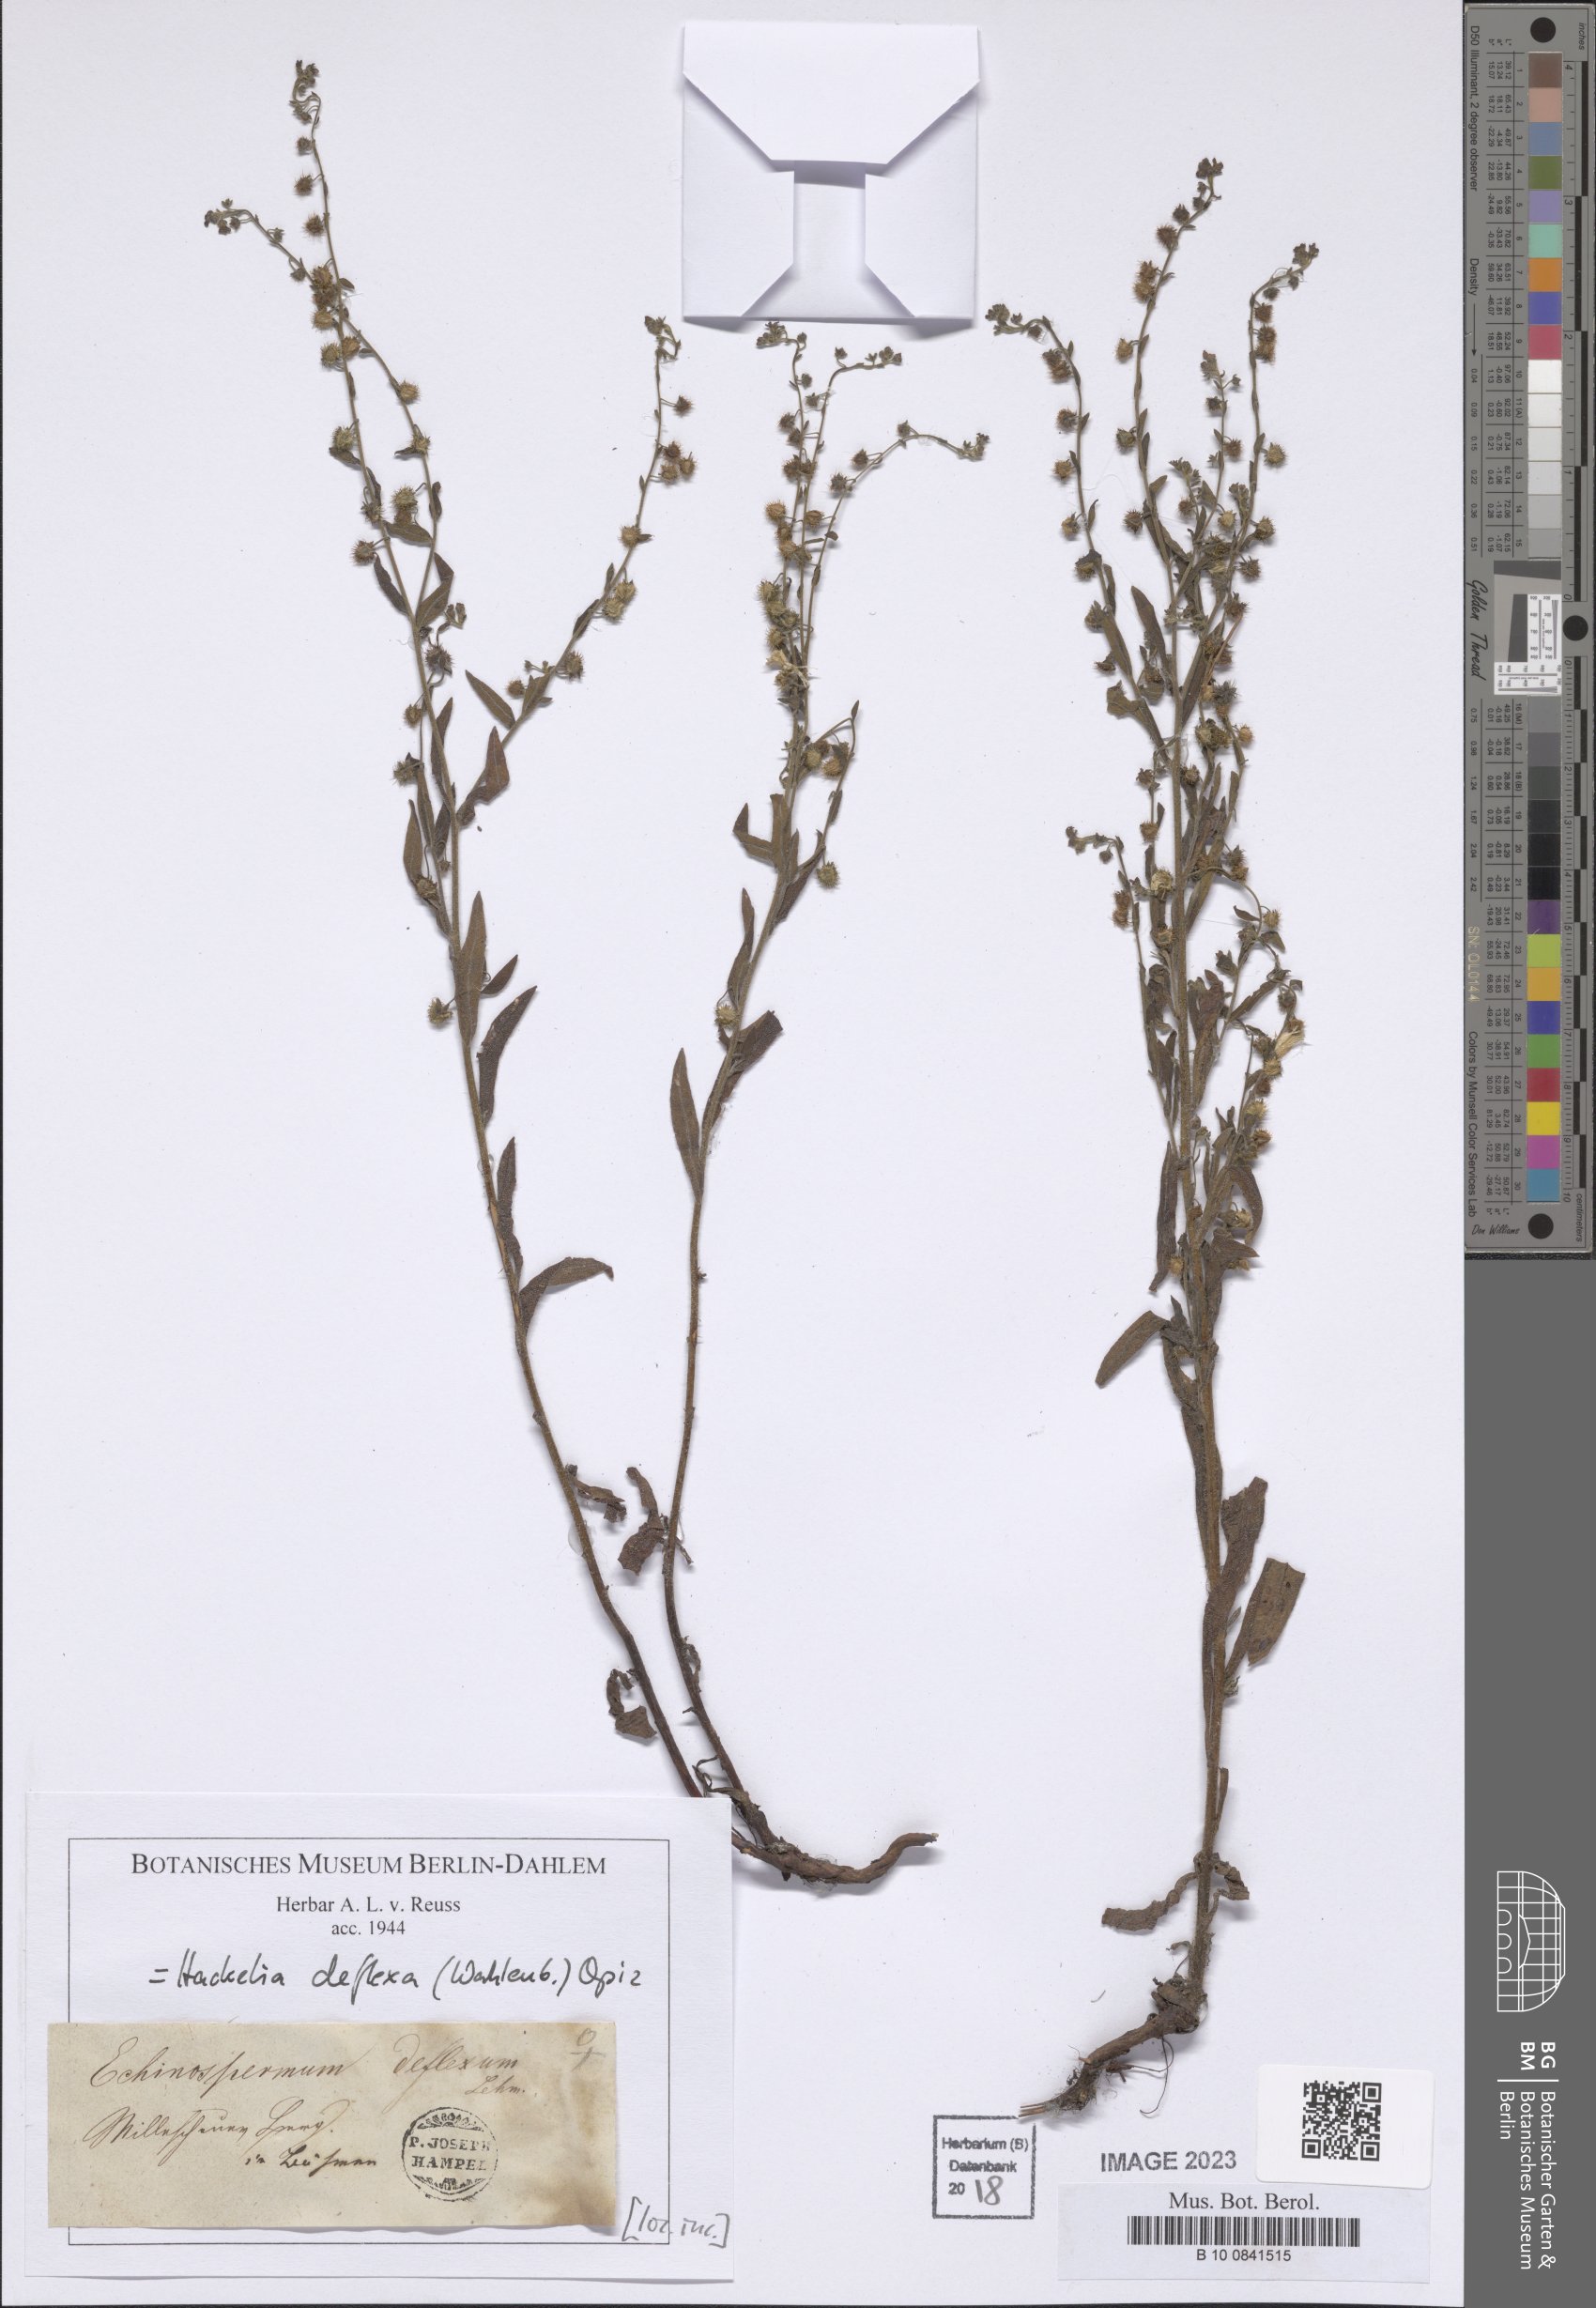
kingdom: Plantae
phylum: Tracheophyta
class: Magnoliopsida
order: Boraginales
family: Boraginaceae
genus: Hackelia
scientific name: Hackelia deflexa
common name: Nodding stickseed
